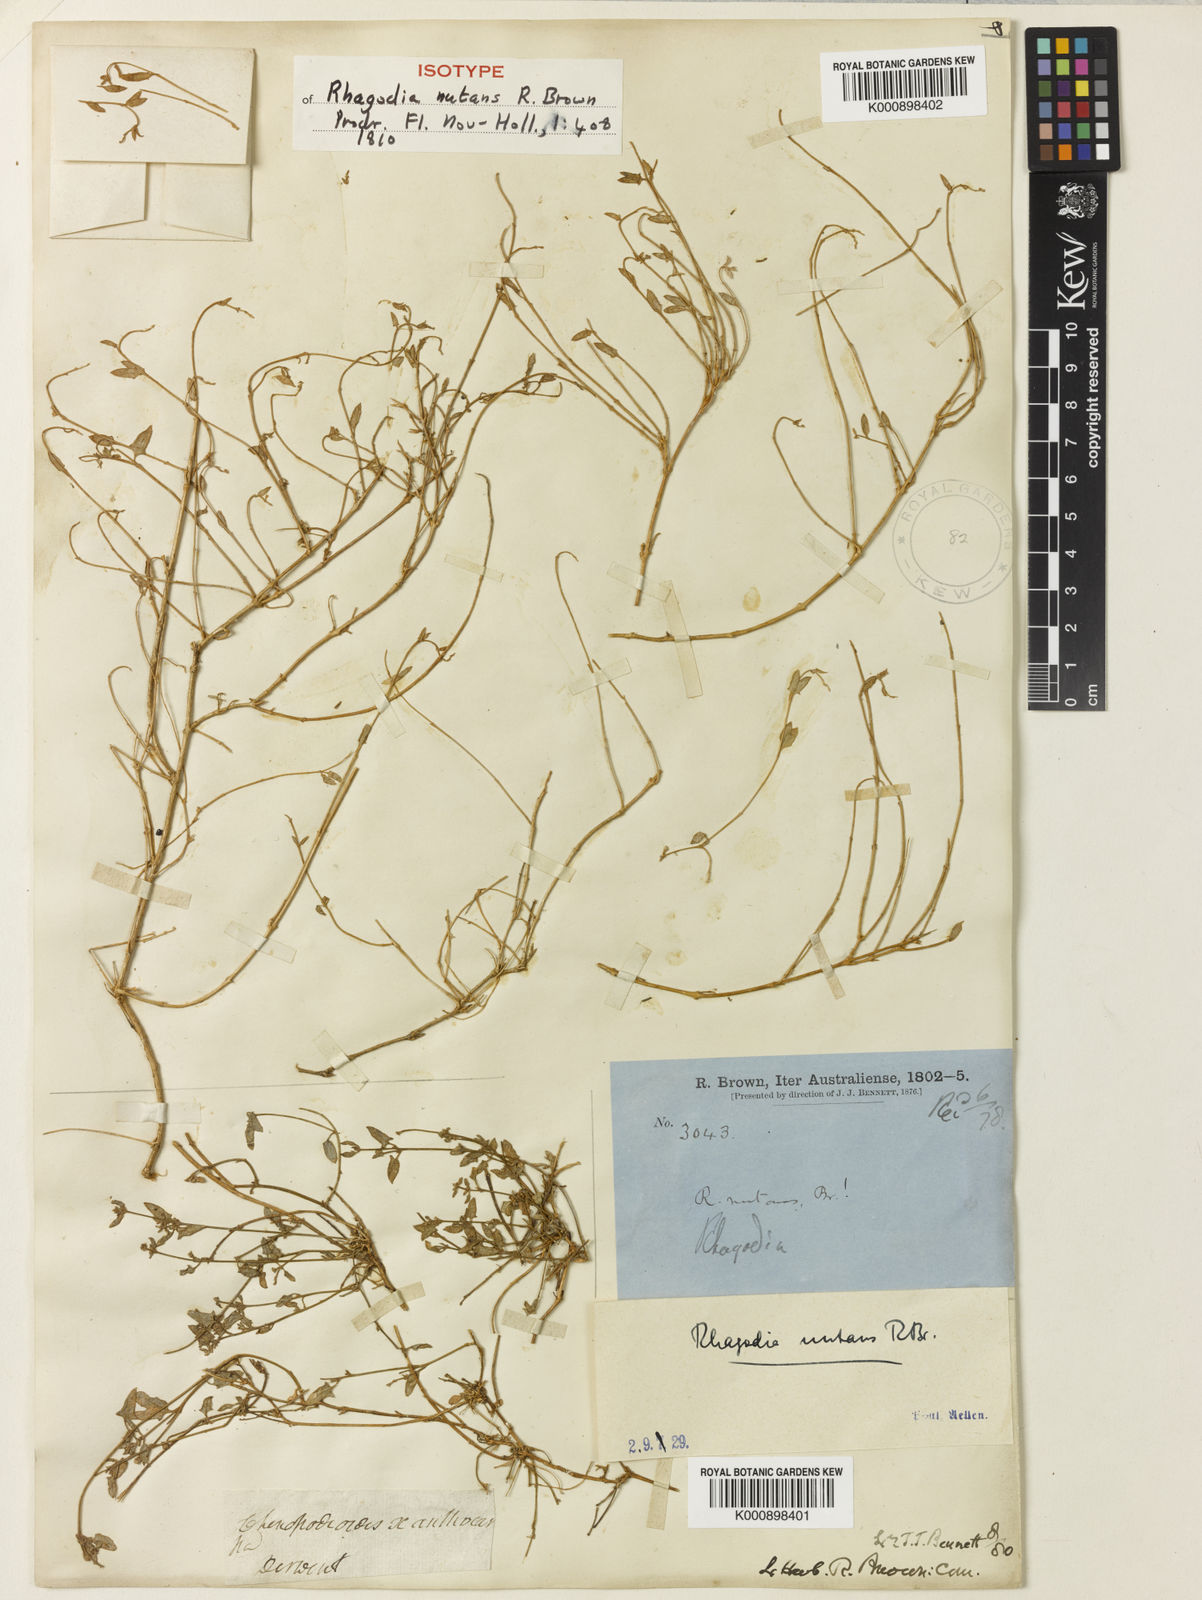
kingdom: Plantae
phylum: Tracheophyta
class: Magnoliopsida
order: Caryophyllales
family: Amaranthaceae
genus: Chenopodium
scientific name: Chenopodium nutans
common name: Climbing-saltbush
